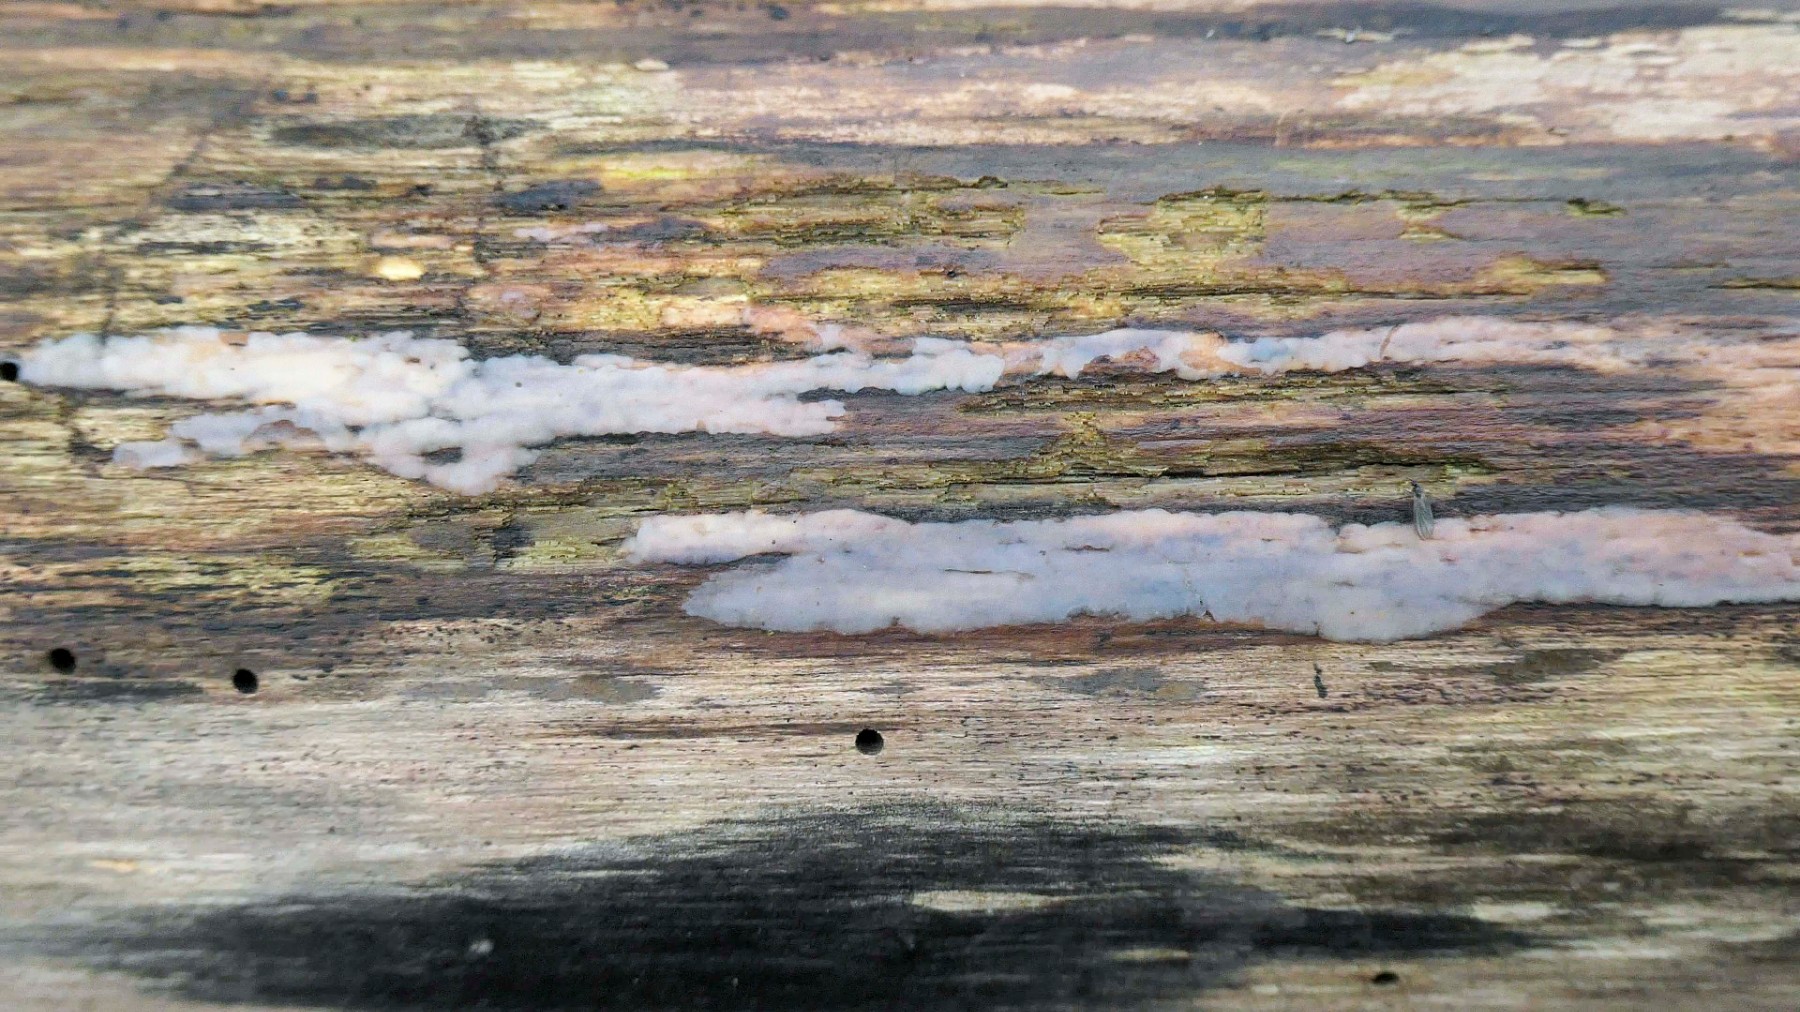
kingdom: Fungi
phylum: Basidiomycota
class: Tremellomycetes
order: Tremellales
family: Exidiaceae
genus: Exidiopsis
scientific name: Exidiopsis effusa
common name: smuk bævrehinde
